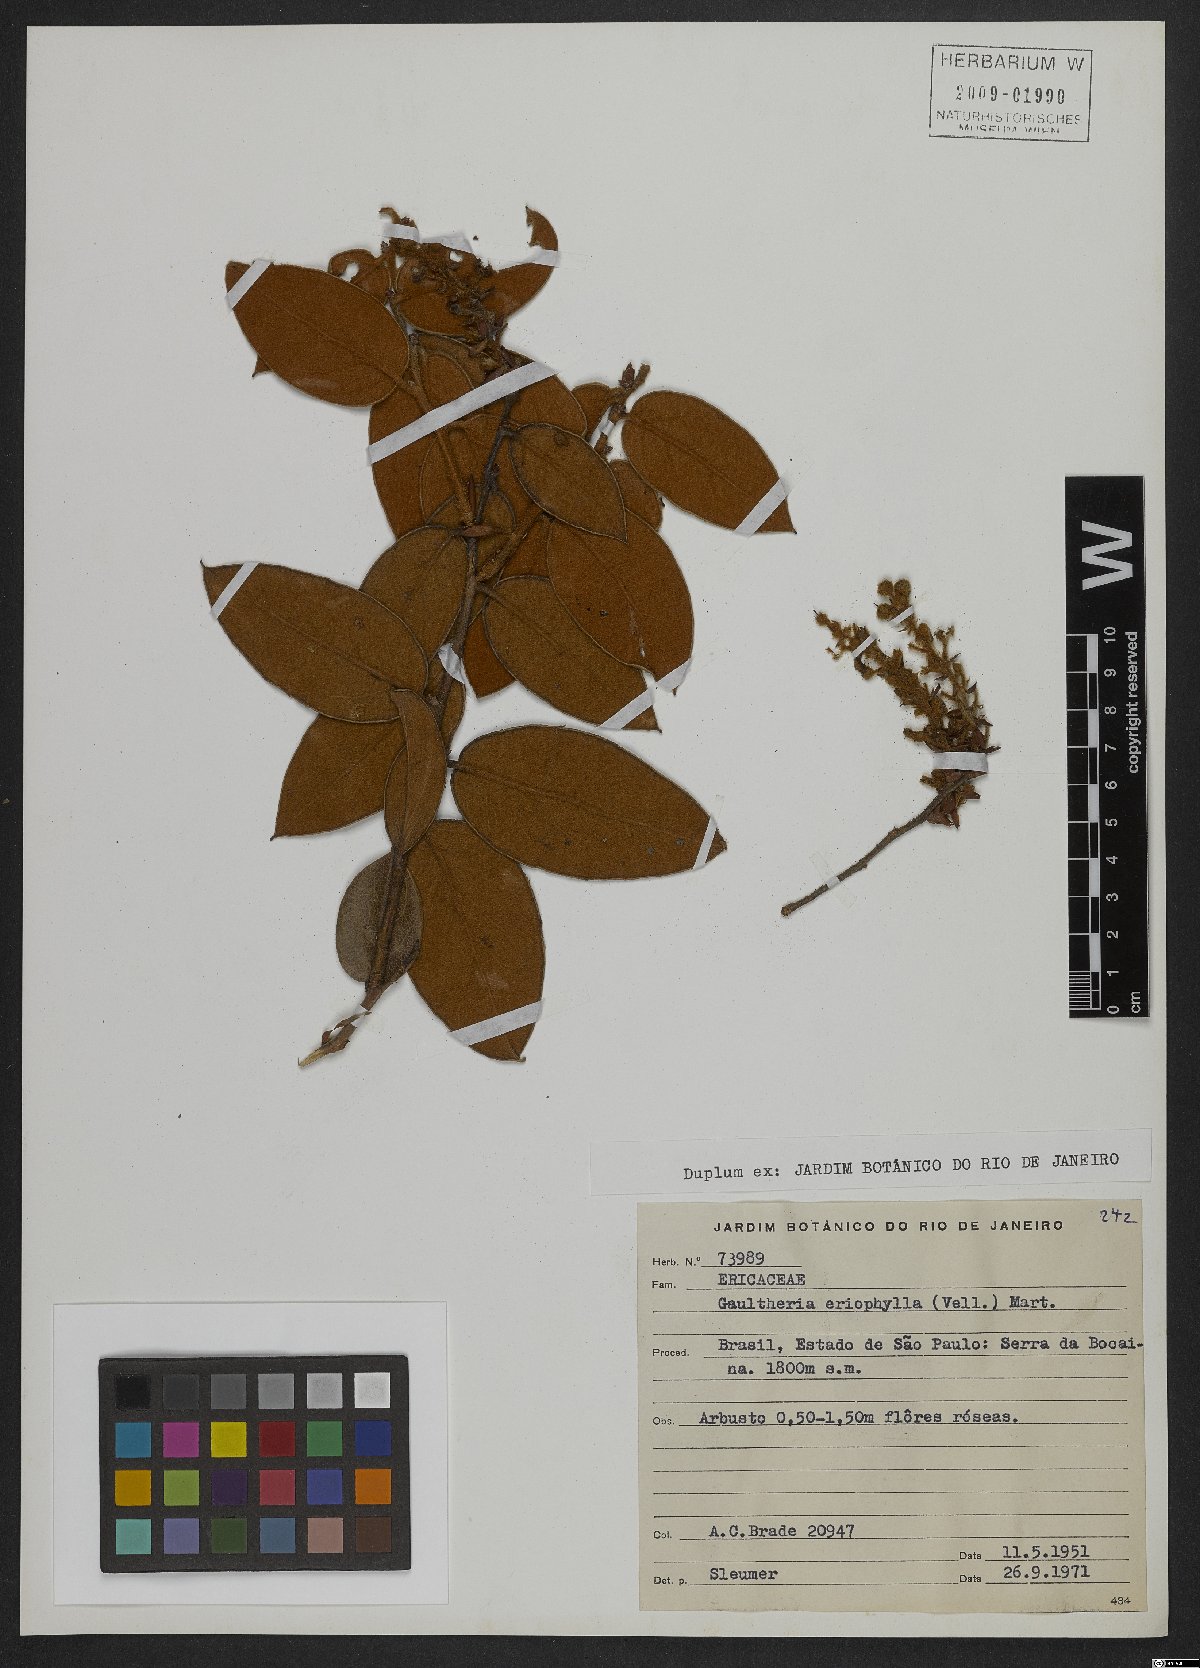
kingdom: Plantae
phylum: Tracheophyta
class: Magnoliopsida
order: Ericales
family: Ericaceae
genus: Gaultheria
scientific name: Gaultheria eriophylla
